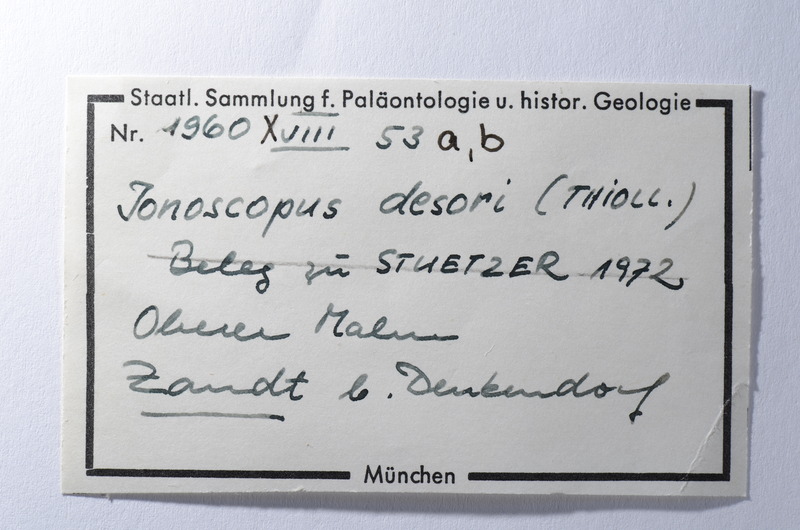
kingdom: Animalia
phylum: Chordata
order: Amiiformes
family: Ionoscopidae
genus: Ionoscopus
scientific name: Ionoscopus desori
